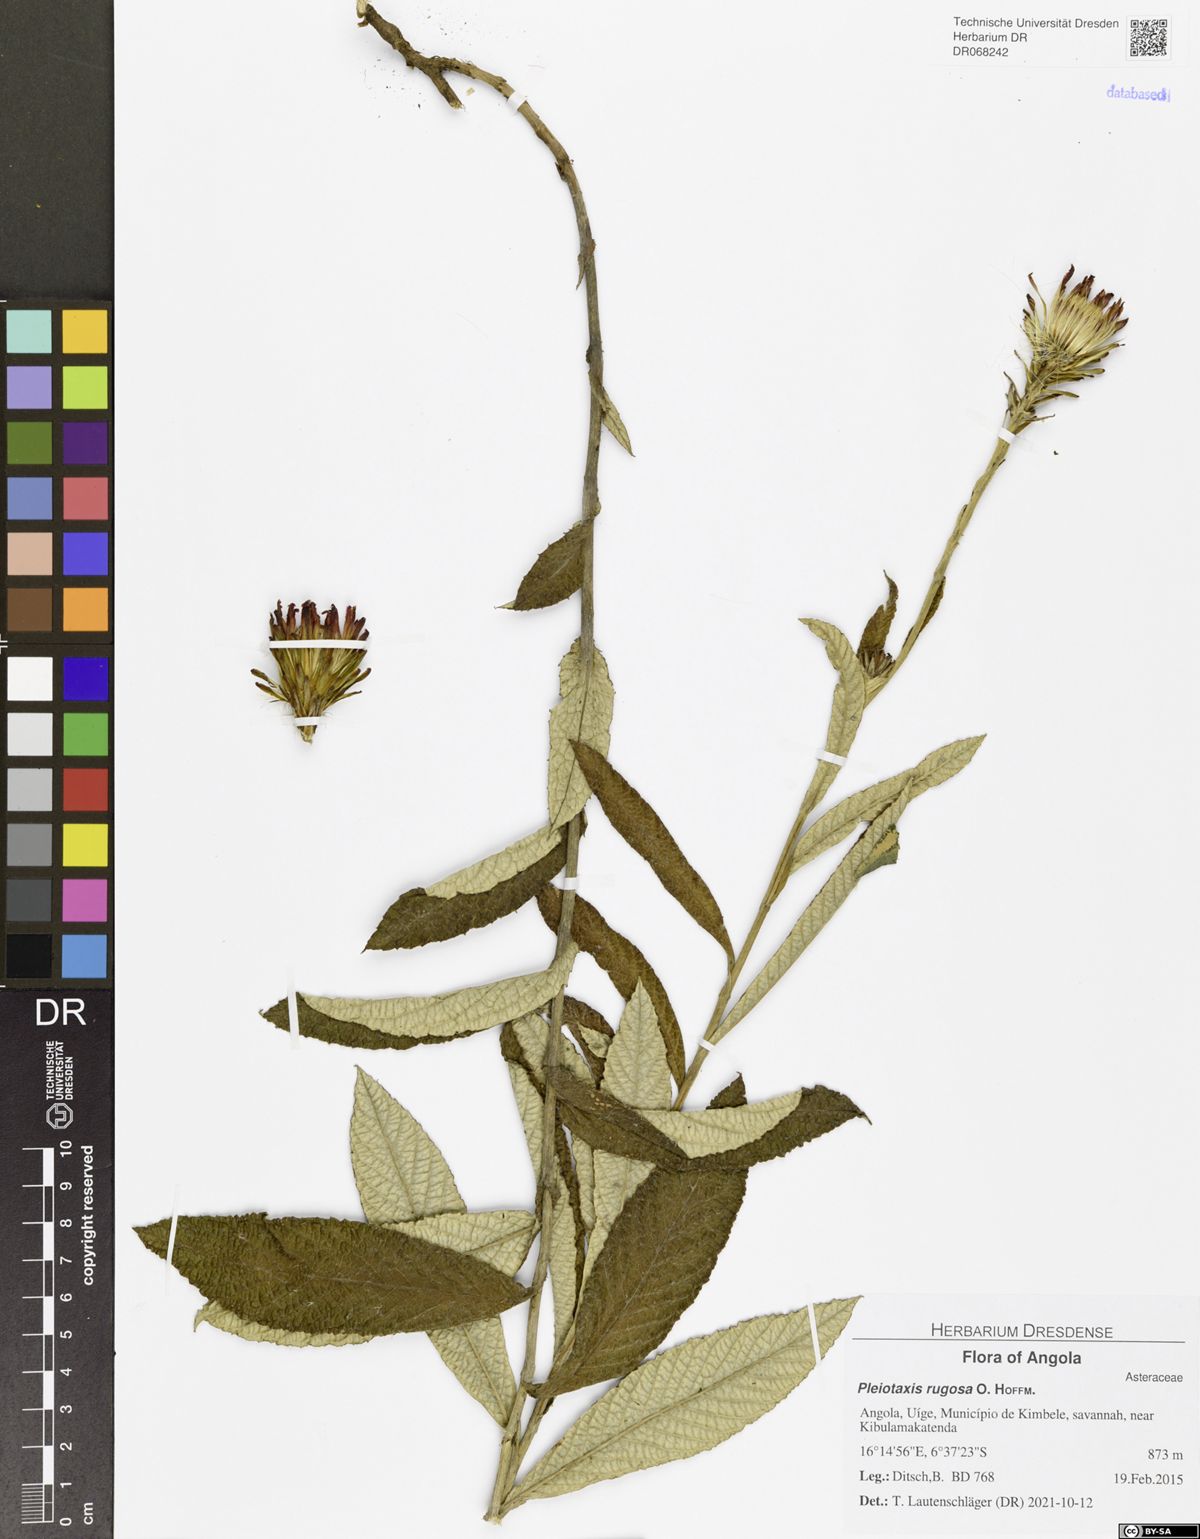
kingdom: Plantae
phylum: Tracheophyta
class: Magnoliopsida
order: Asterales
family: Asteraceae
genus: Pleiotaxis
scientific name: Pleiotaxis rugosa
